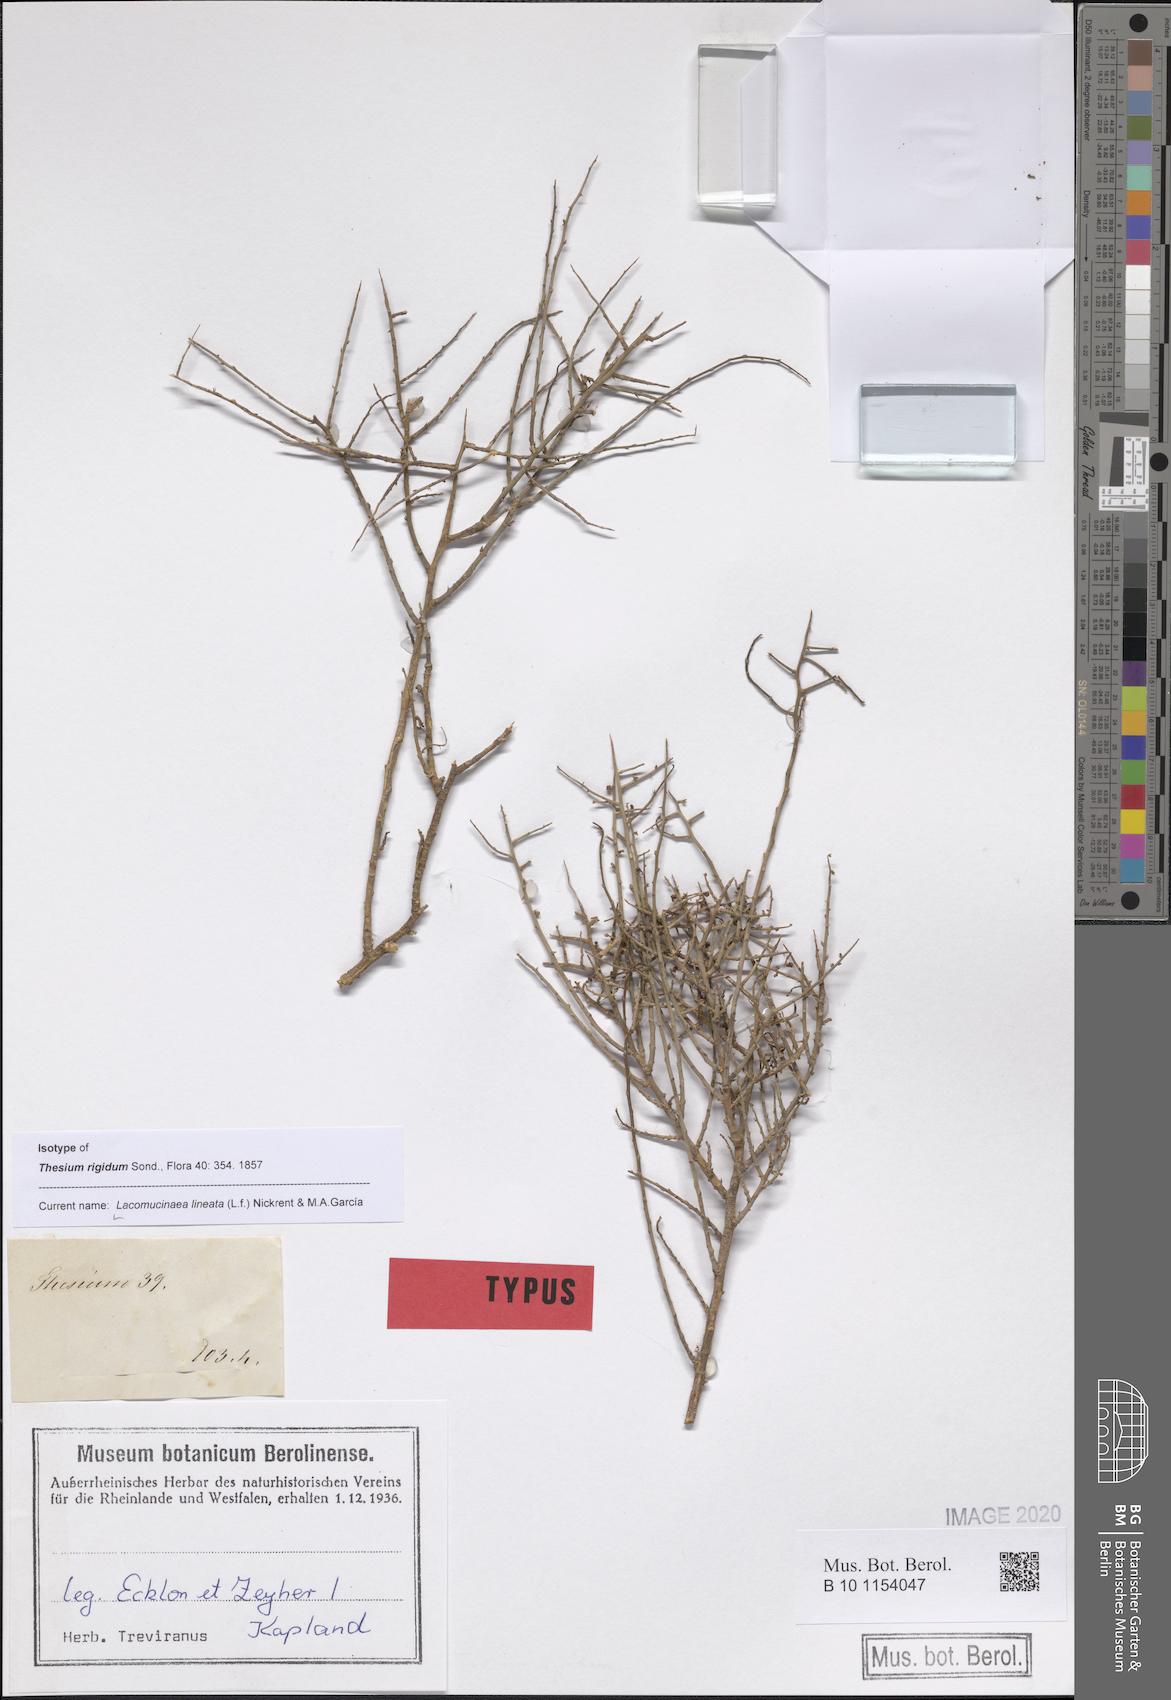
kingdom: Plantae
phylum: Tracheophyta
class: Magnoliopsida
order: Santalales
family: Thesiaceae
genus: Lacomucinaea
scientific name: Lacomucinaea lineata
